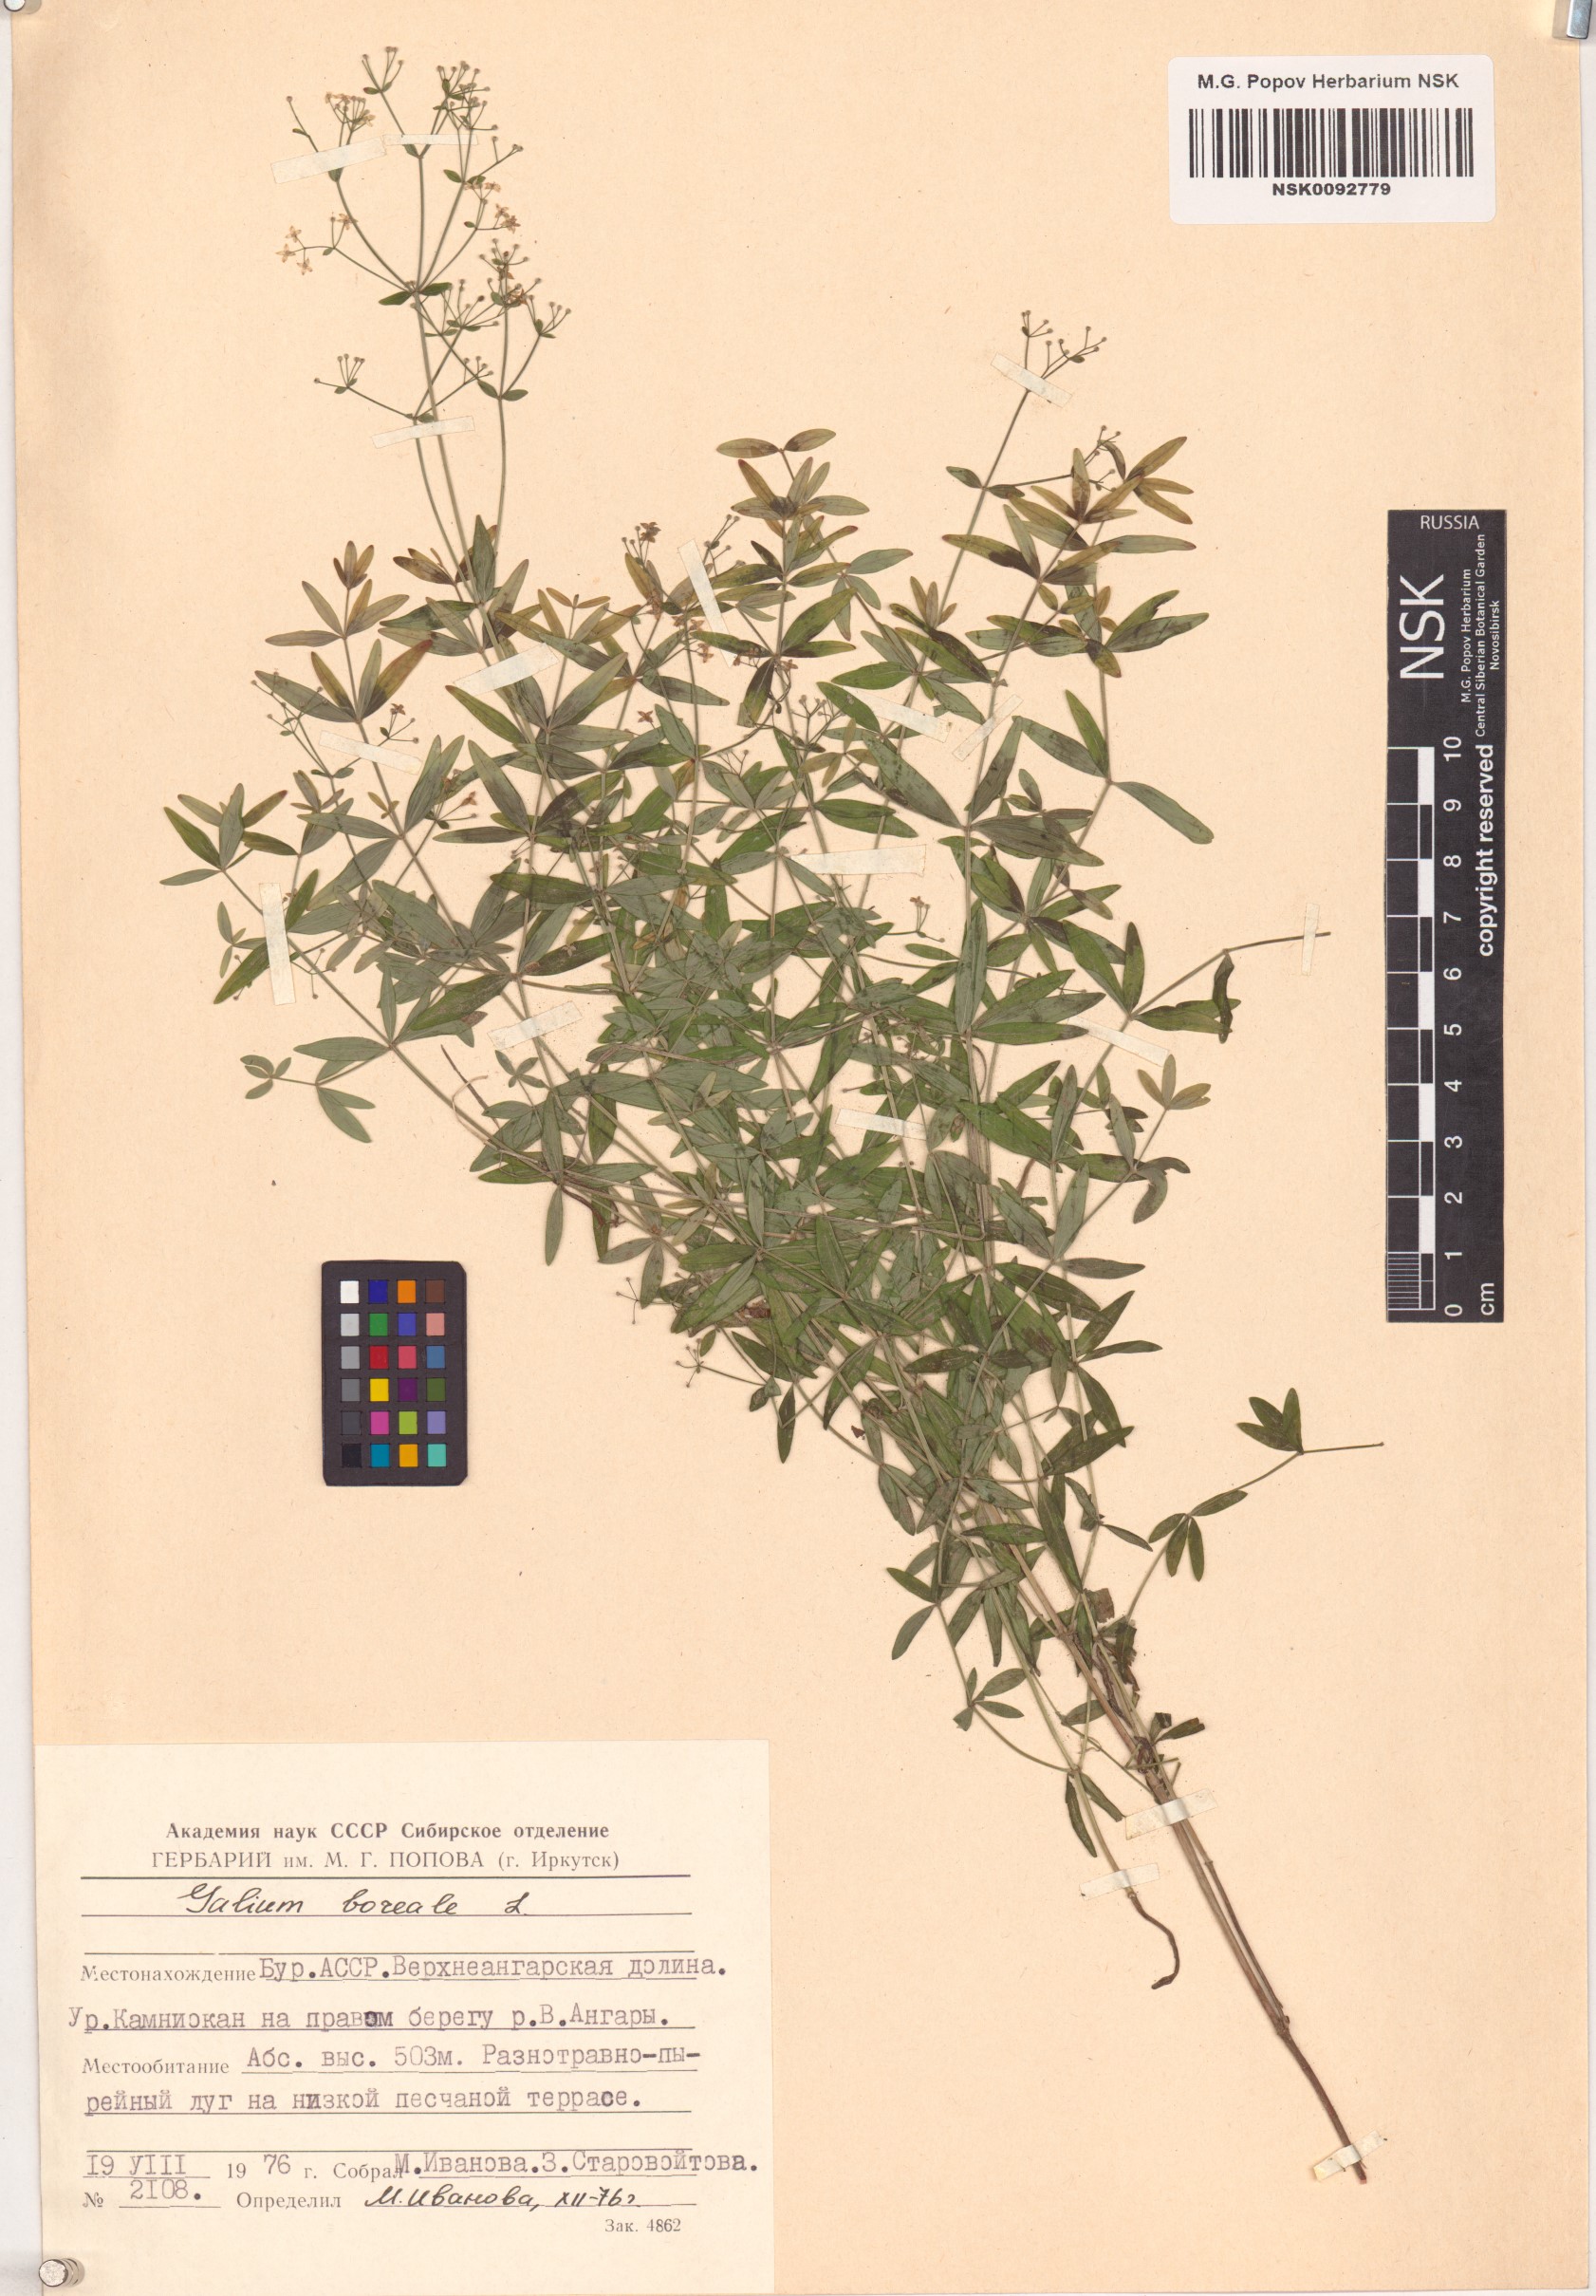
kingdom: Plantae
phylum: Tracheophyta
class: Magnoliopsida
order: Gentianales
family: Rubiaceae
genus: Galium
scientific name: Galium boreale
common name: Northern bedstraw
